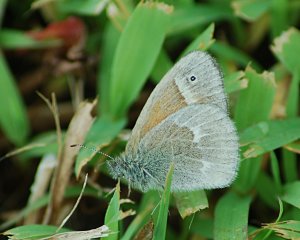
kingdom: Animalia
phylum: Arthropoda
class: Insecta
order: Lepidoptera
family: Nymphalidae
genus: Coenonympha
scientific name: Coenonympha tullia
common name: Large Heath
